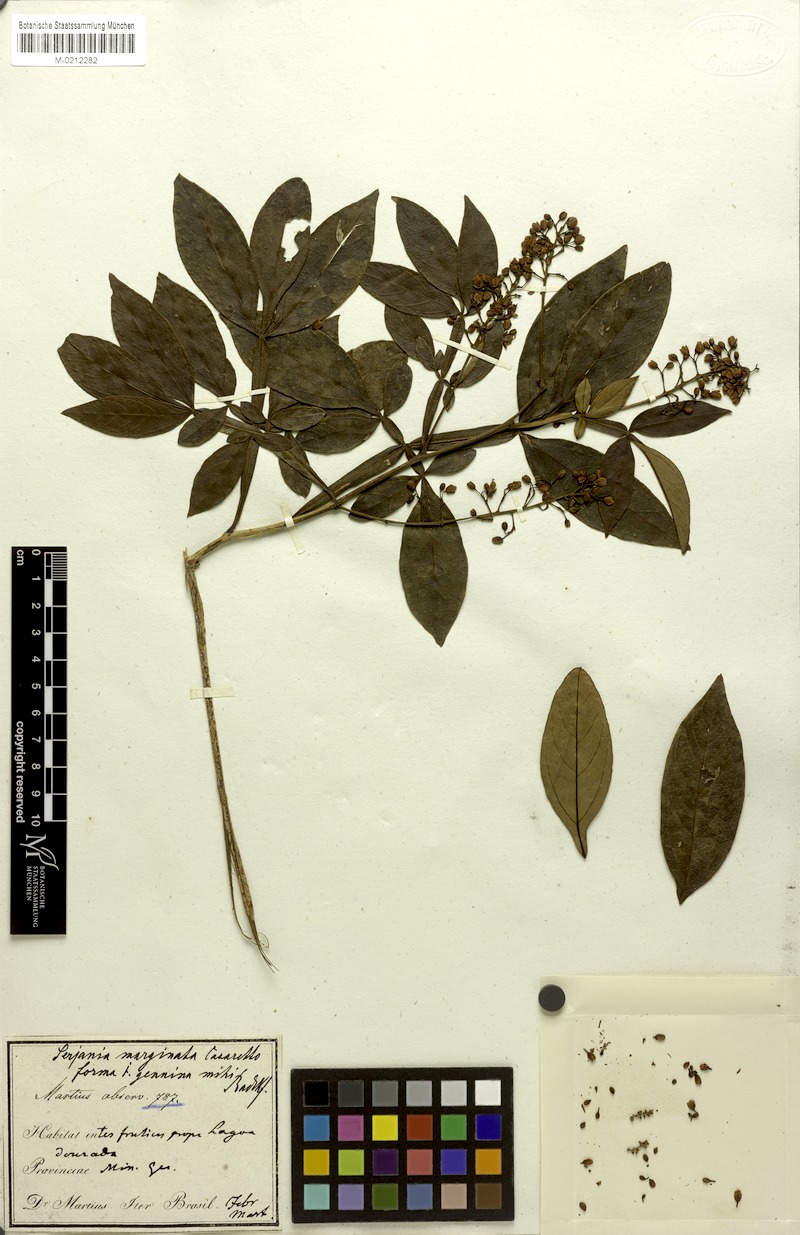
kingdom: Plantae
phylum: Tracheophyta
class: Magnoliopsida
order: Sapindales
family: Sapindaceae
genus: Serjania
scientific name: Serjania marginata
